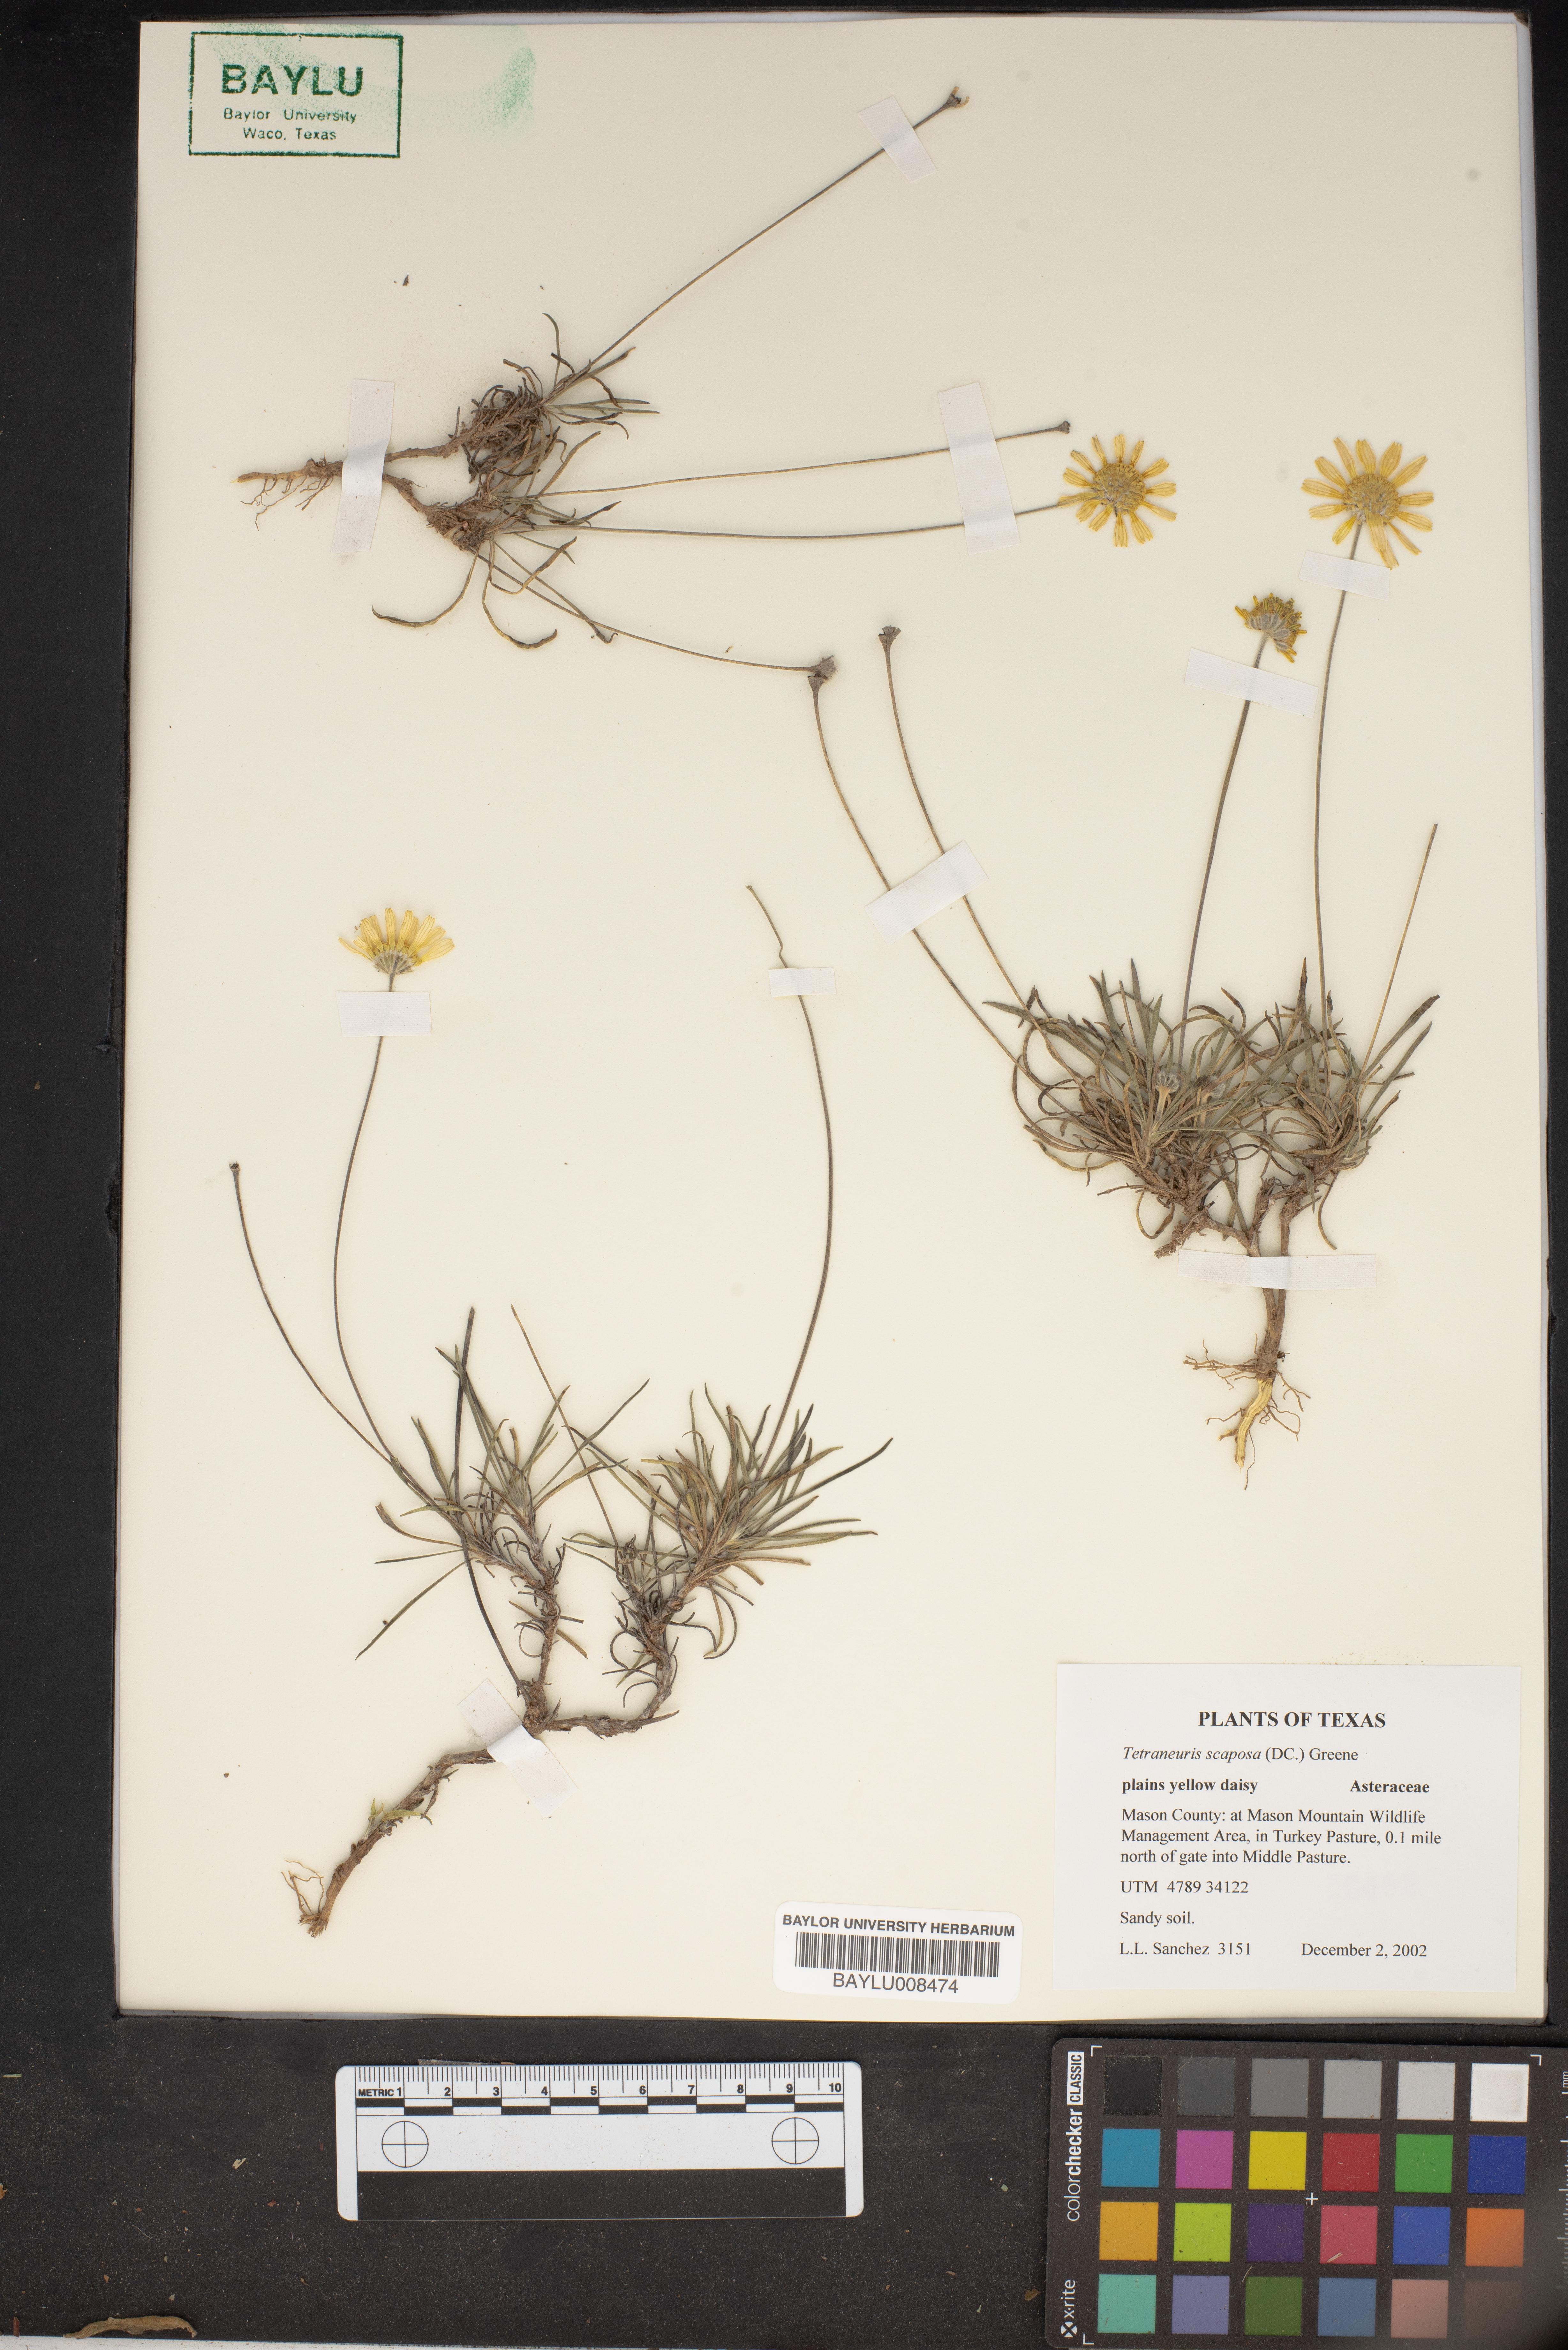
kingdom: Plantae
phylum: Tracheophyta
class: Magnoliopsida
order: Asterales
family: Asteraceae
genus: Tetraneuris
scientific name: Tetraneuris scaposa
